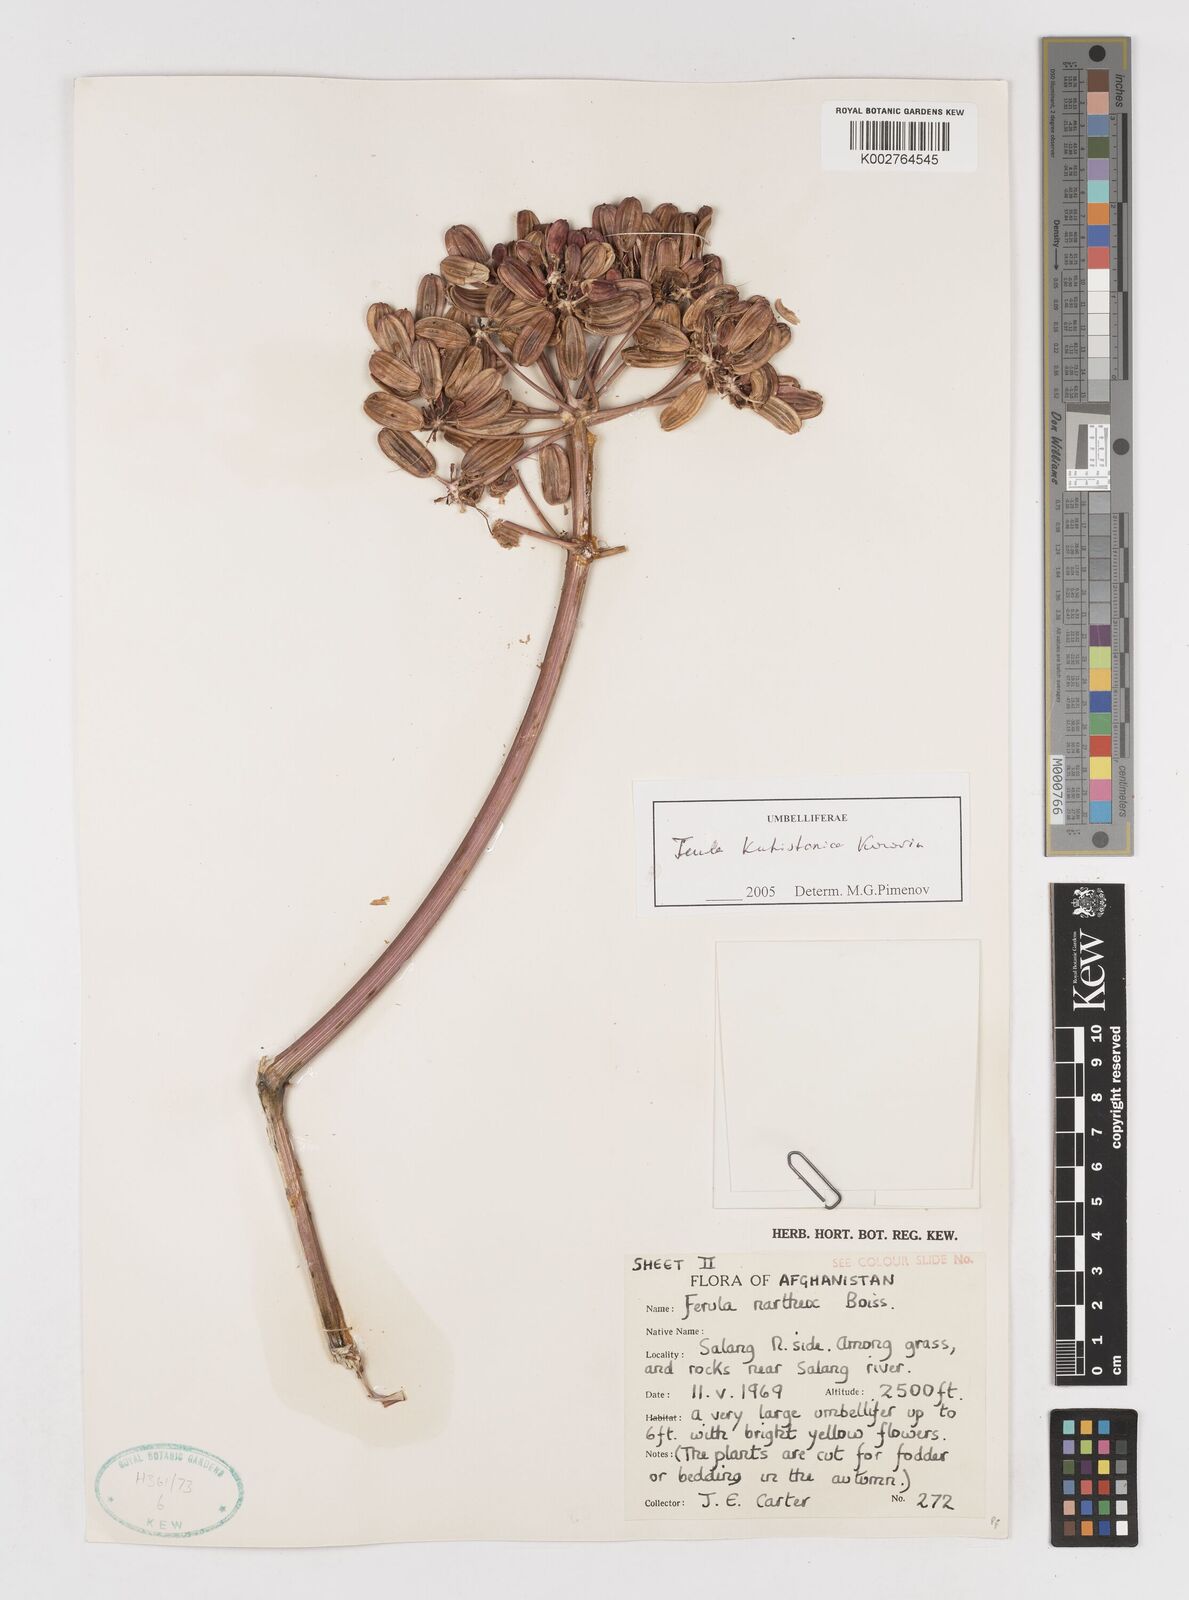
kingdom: Plantae
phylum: Tracheophyta
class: Magnoliopsida
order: Apiales
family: Apiaceae
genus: Ferula
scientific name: Ferula kuhistanica
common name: Kamol
